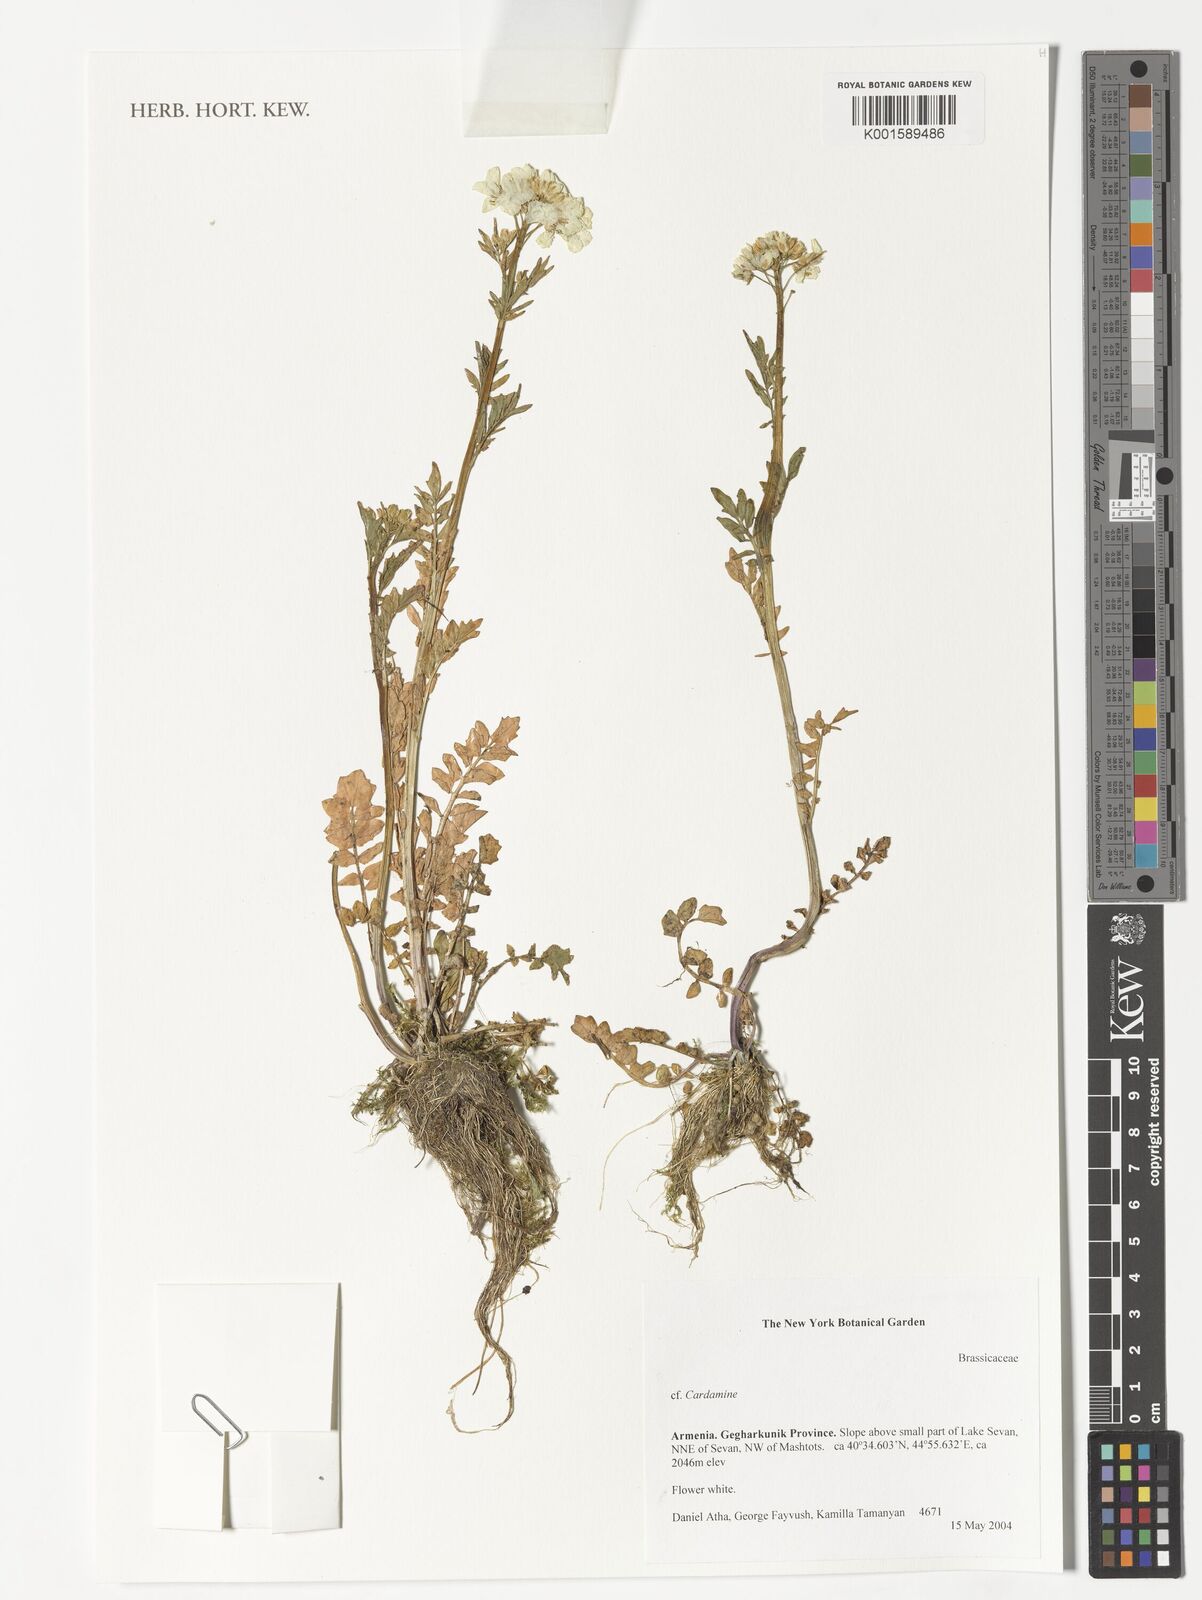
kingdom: Plantae
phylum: Tracheophyta
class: Magnoliopsida
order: Brassicales
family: Brassicaceae
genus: Cardamine
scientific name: Cardamine
